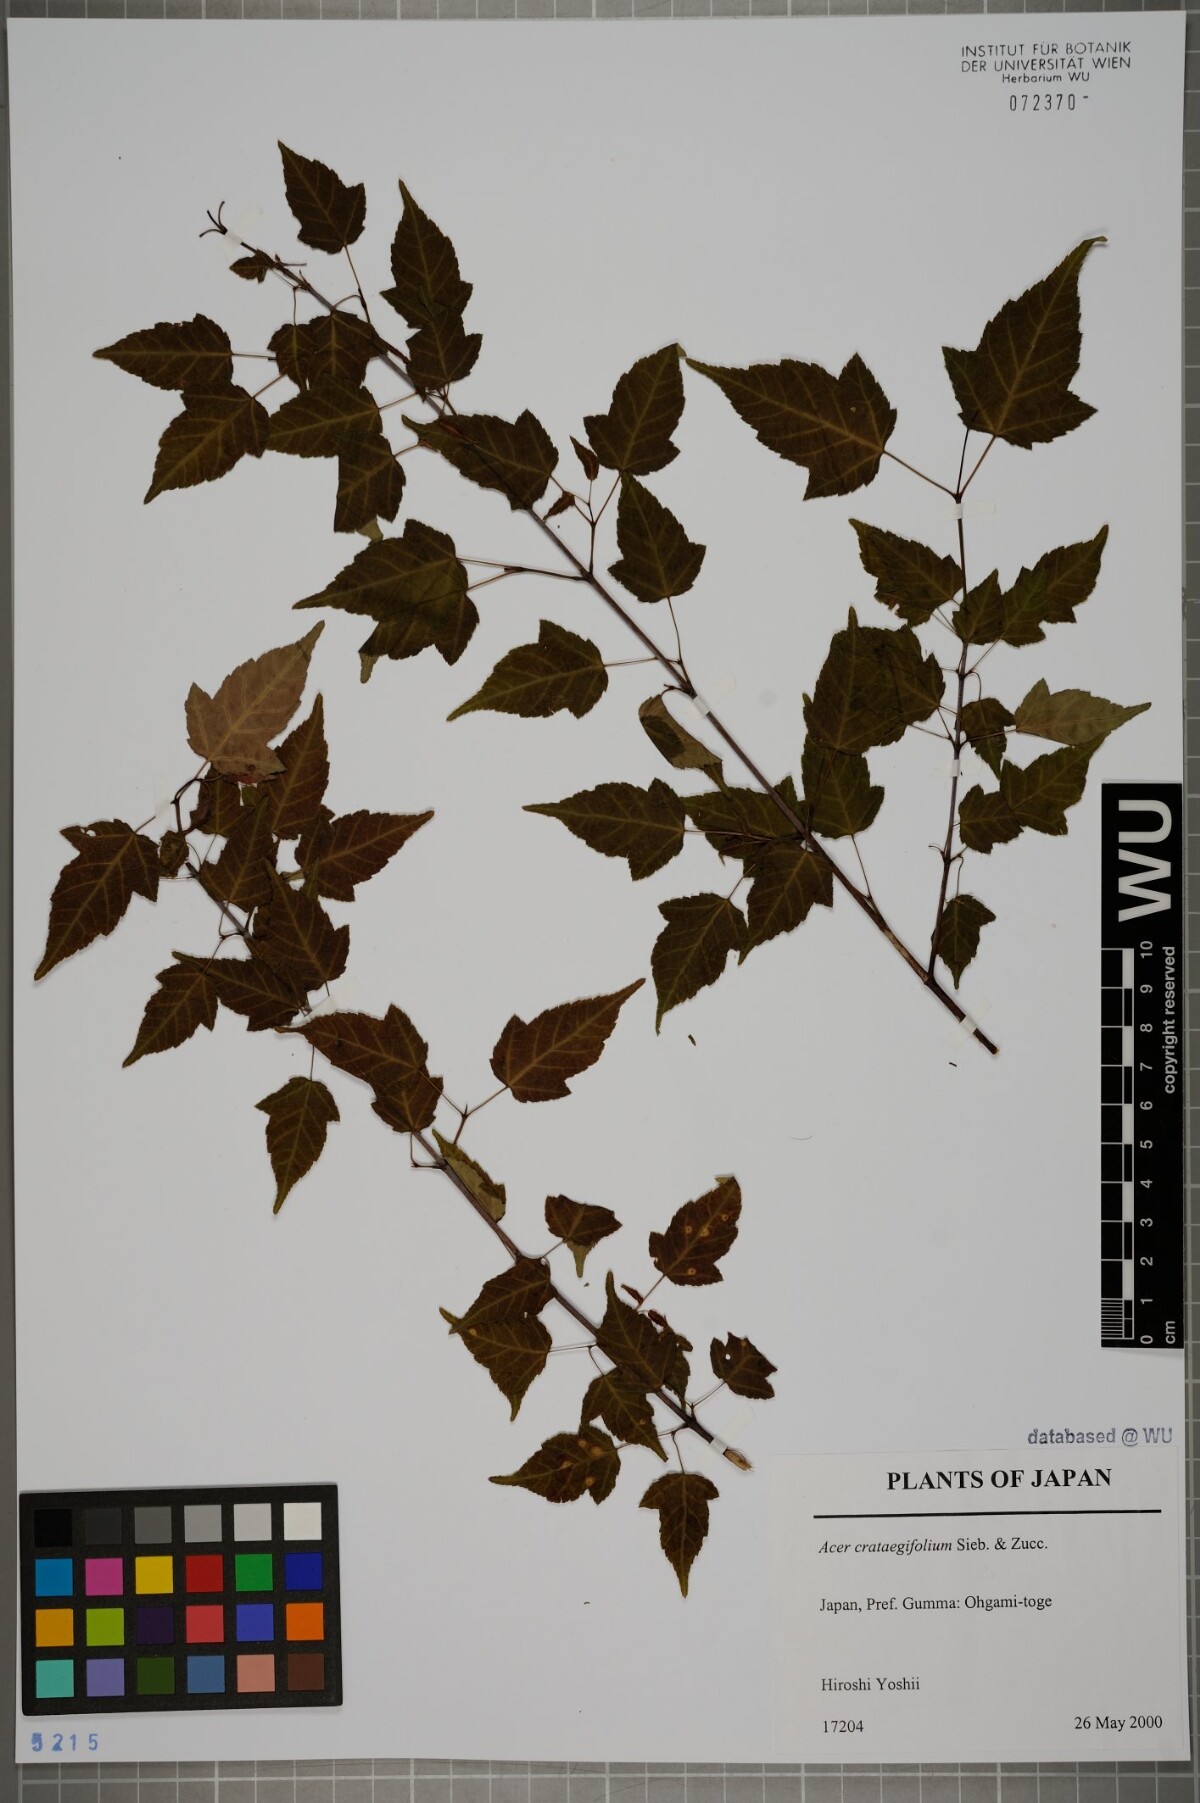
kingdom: Plantae
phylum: Tracheophyta
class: Magnoliopsida
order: Sapindales
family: Sapindaceae
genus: Acer
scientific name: Acer crataegifolium
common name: Hawthorn-leaf maple
